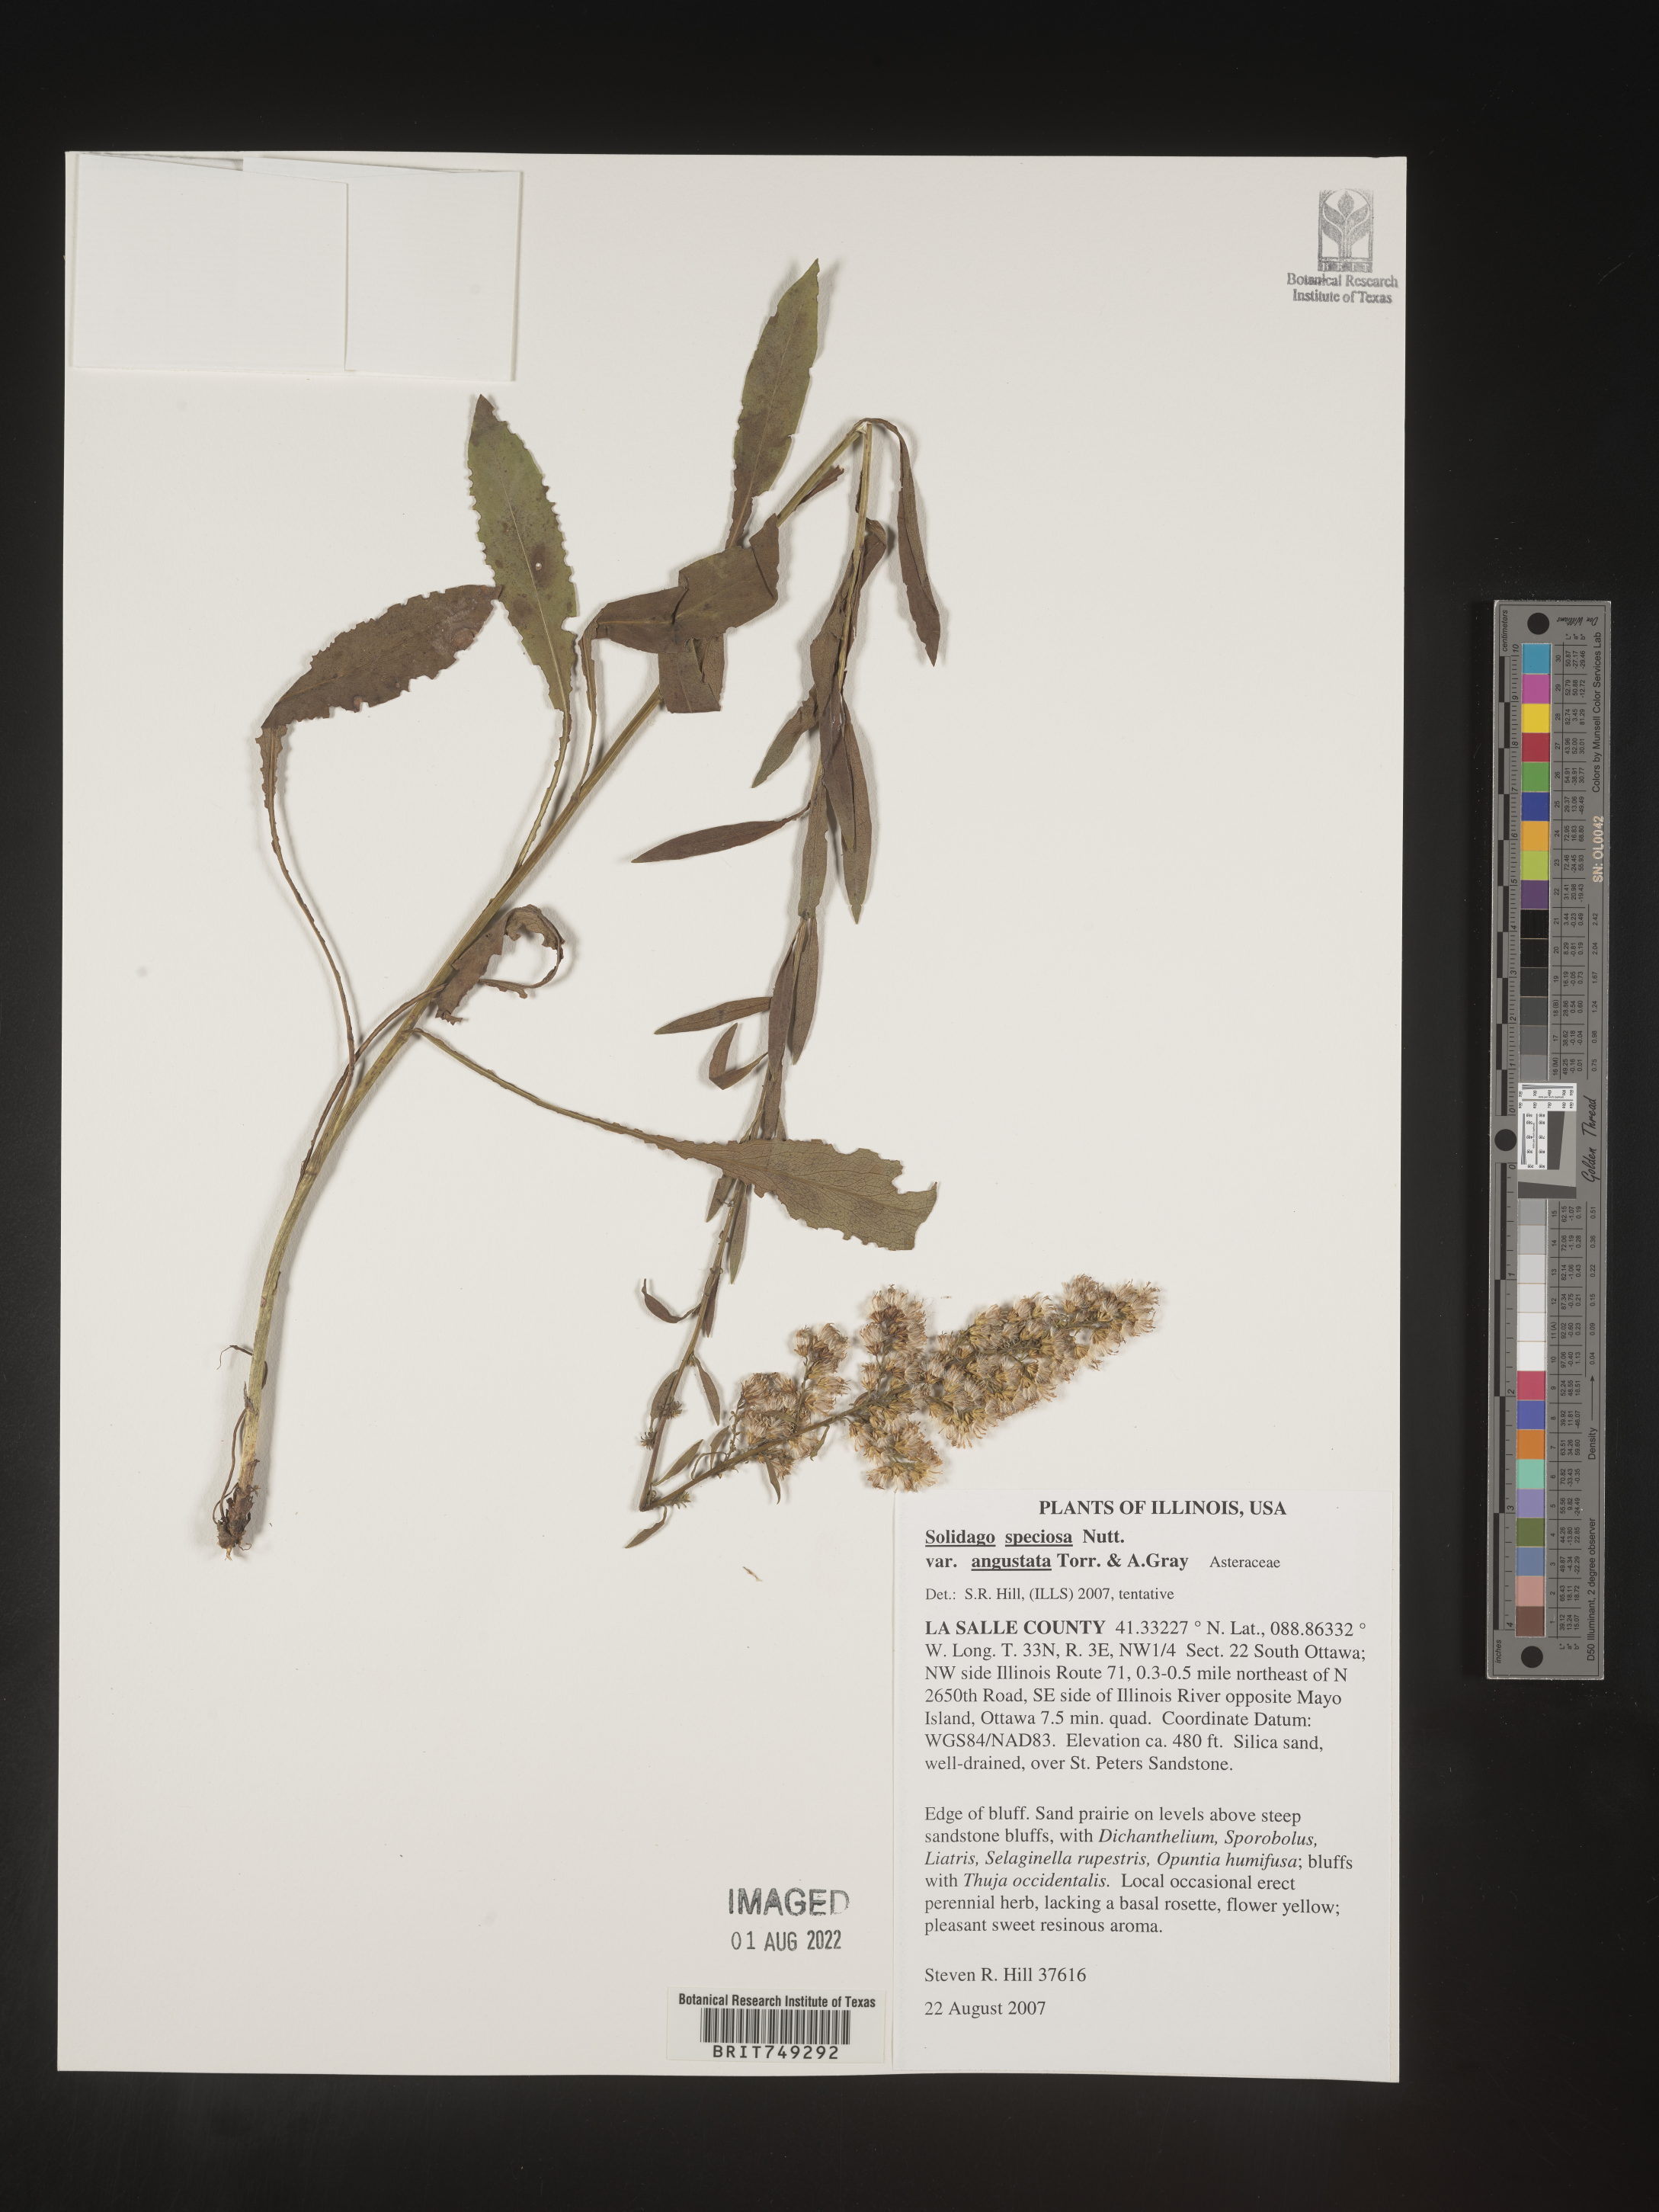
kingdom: Plantae
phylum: Tracheophyta
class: Magnoliopsida
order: Asterales
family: Asteraceae
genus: Solidago
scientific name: Solidago speciosa
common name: Showy goldenrod
